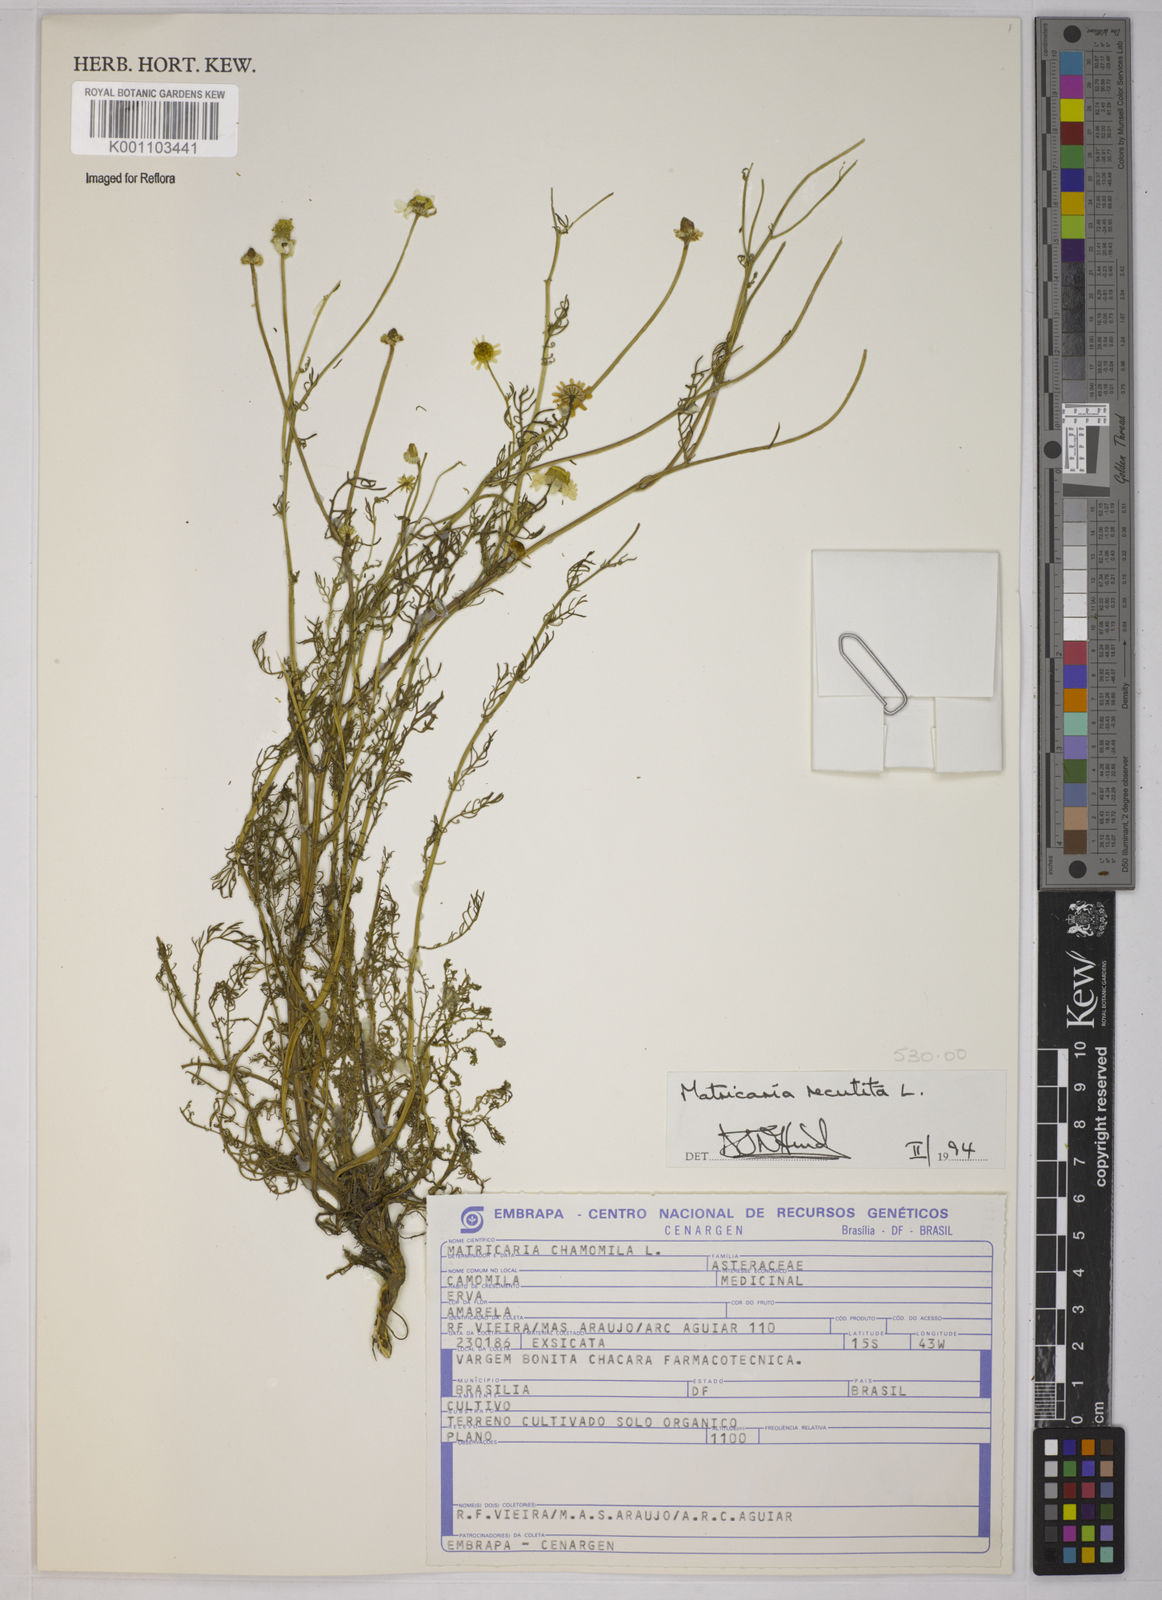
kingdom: Plantae
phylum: Tracheophyta
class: Magnoliopsida
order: Asterales
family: Asteraceae
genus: Matricaria
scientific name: Matricaria chamomilla
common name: Scented mayweed
